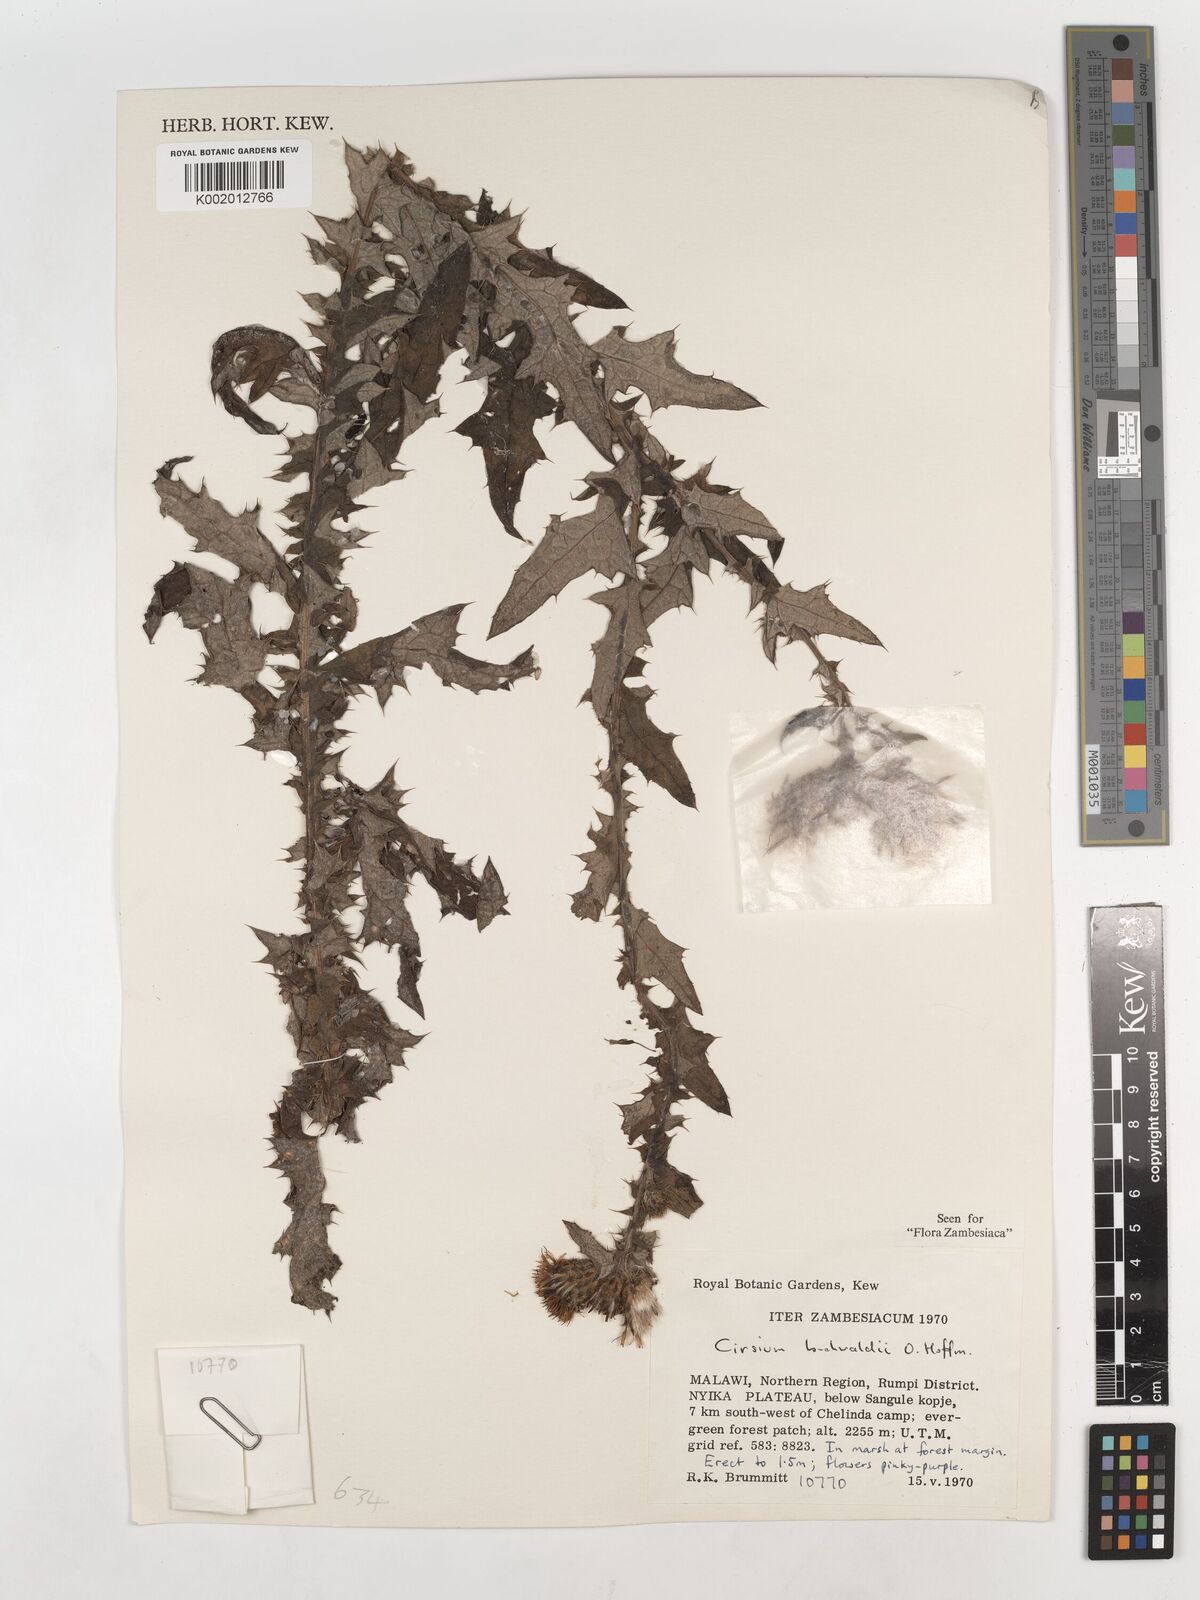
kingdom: Plantae
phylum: Tracheophyta
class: Magnoliopsida
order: Asterales
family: Asteraceae
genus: Cirsium
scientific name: Cirsium buchwaldii
